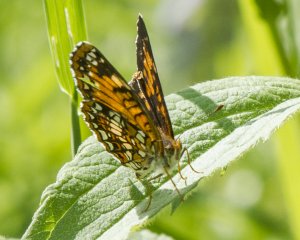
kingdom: Animalia
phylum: Arthropoda
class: Insecta
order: Lepidoptera
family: Nymphalidae
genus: Chlosyne
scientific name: Chlosyne harrisii
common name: Harris's Checkerspot
